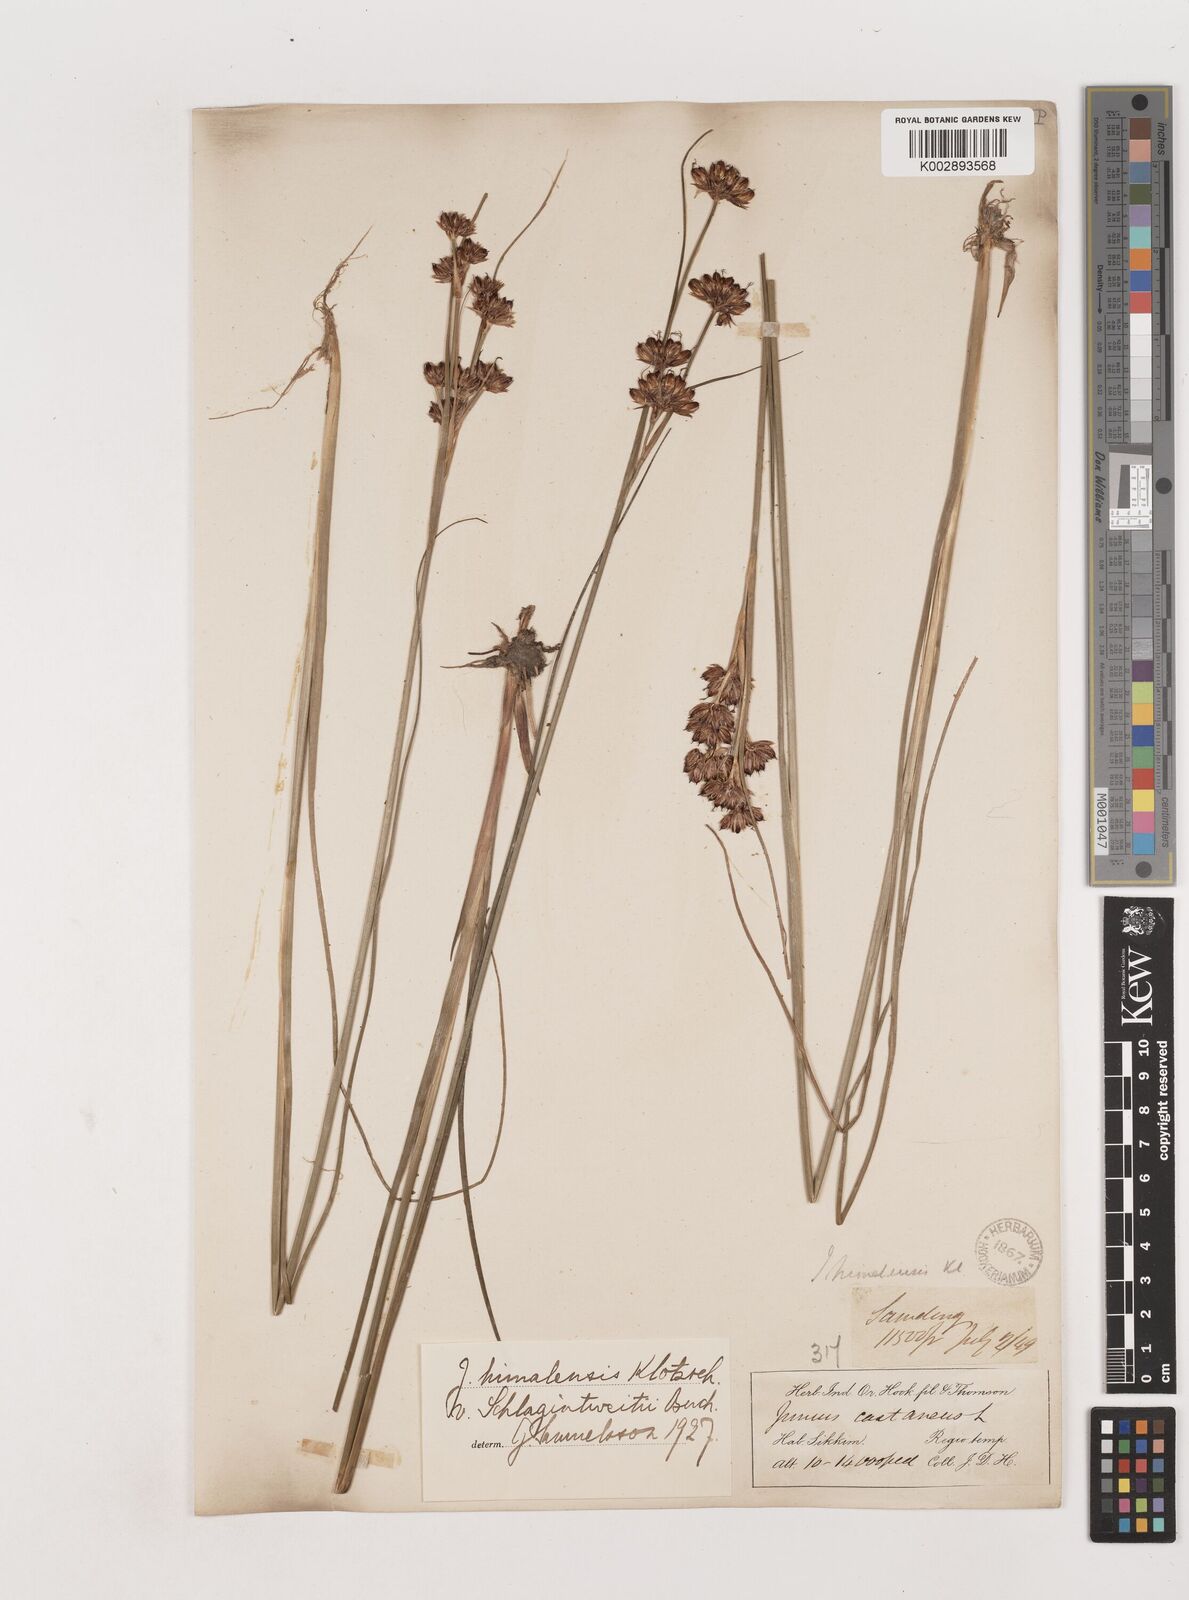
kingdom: Plantae
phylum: Tracheophyta
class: Liliopsida
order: Poales
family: Juncaceae
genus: Juncus
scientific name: Juncus himalensis
